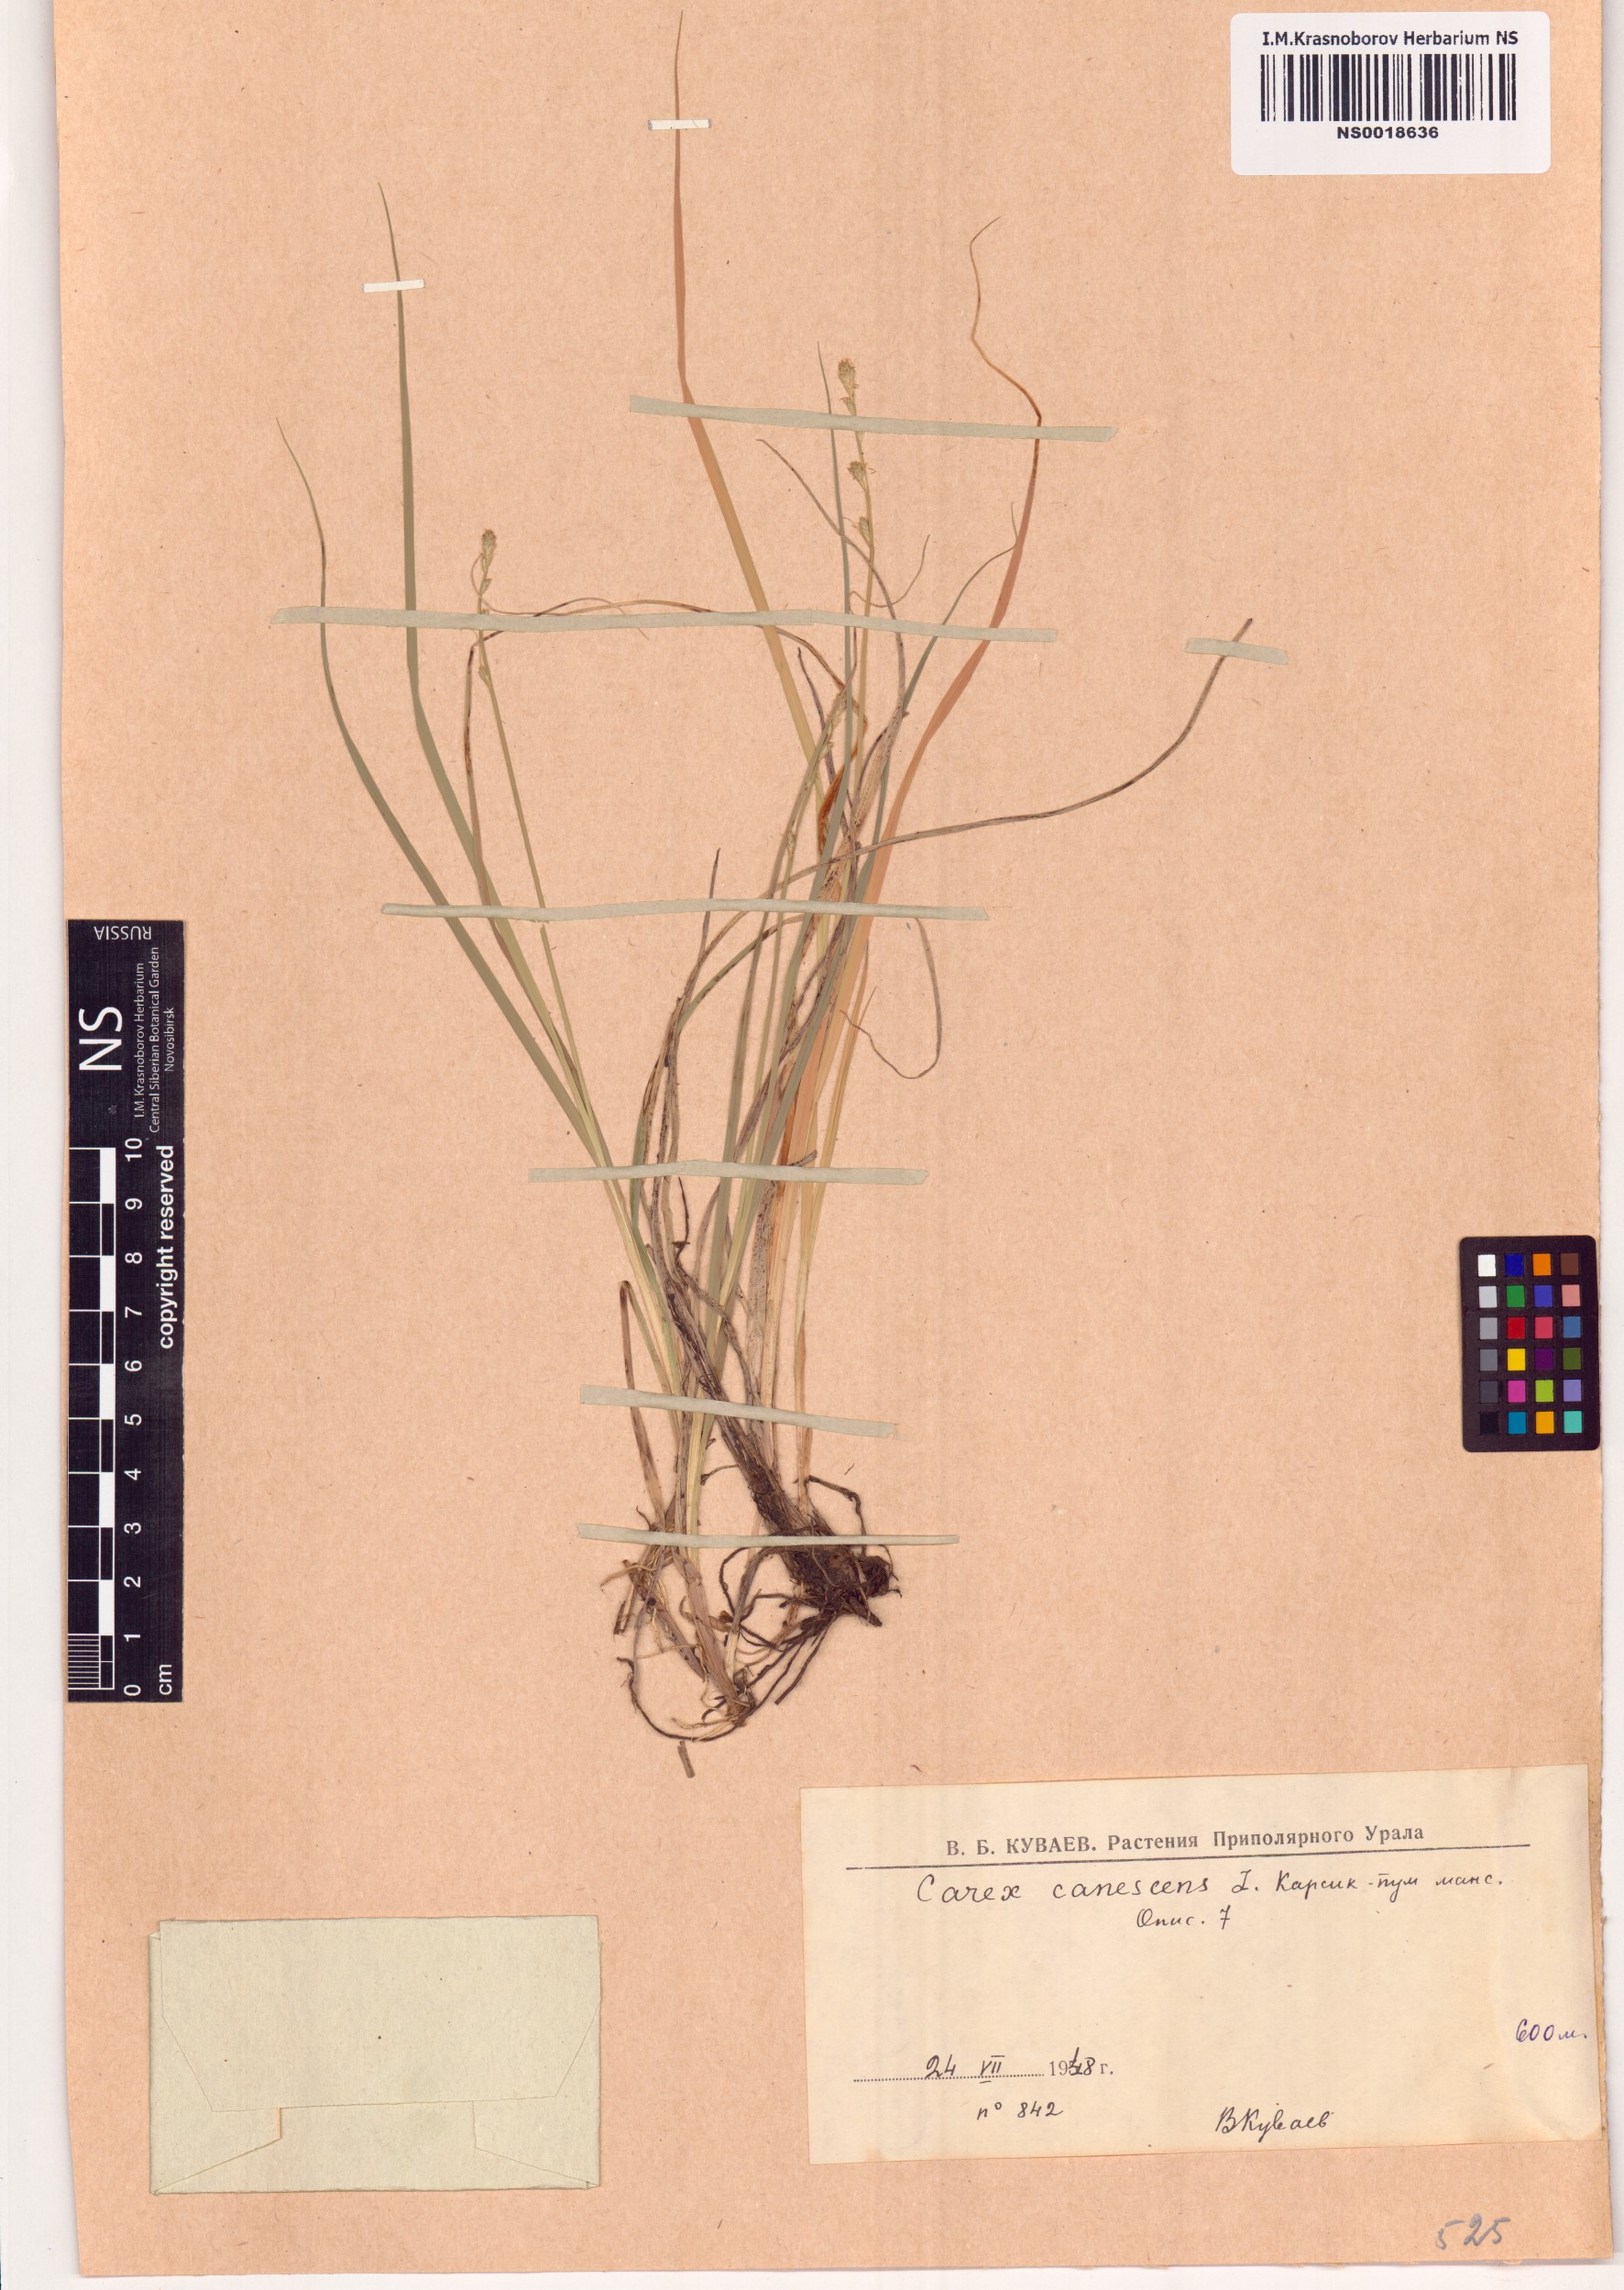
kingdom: Plantae
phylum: Tracheophyta
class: Liliopsida
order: Poales
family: Cyperaceae
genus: Carex
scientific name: Carex canescens
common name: White sedge
